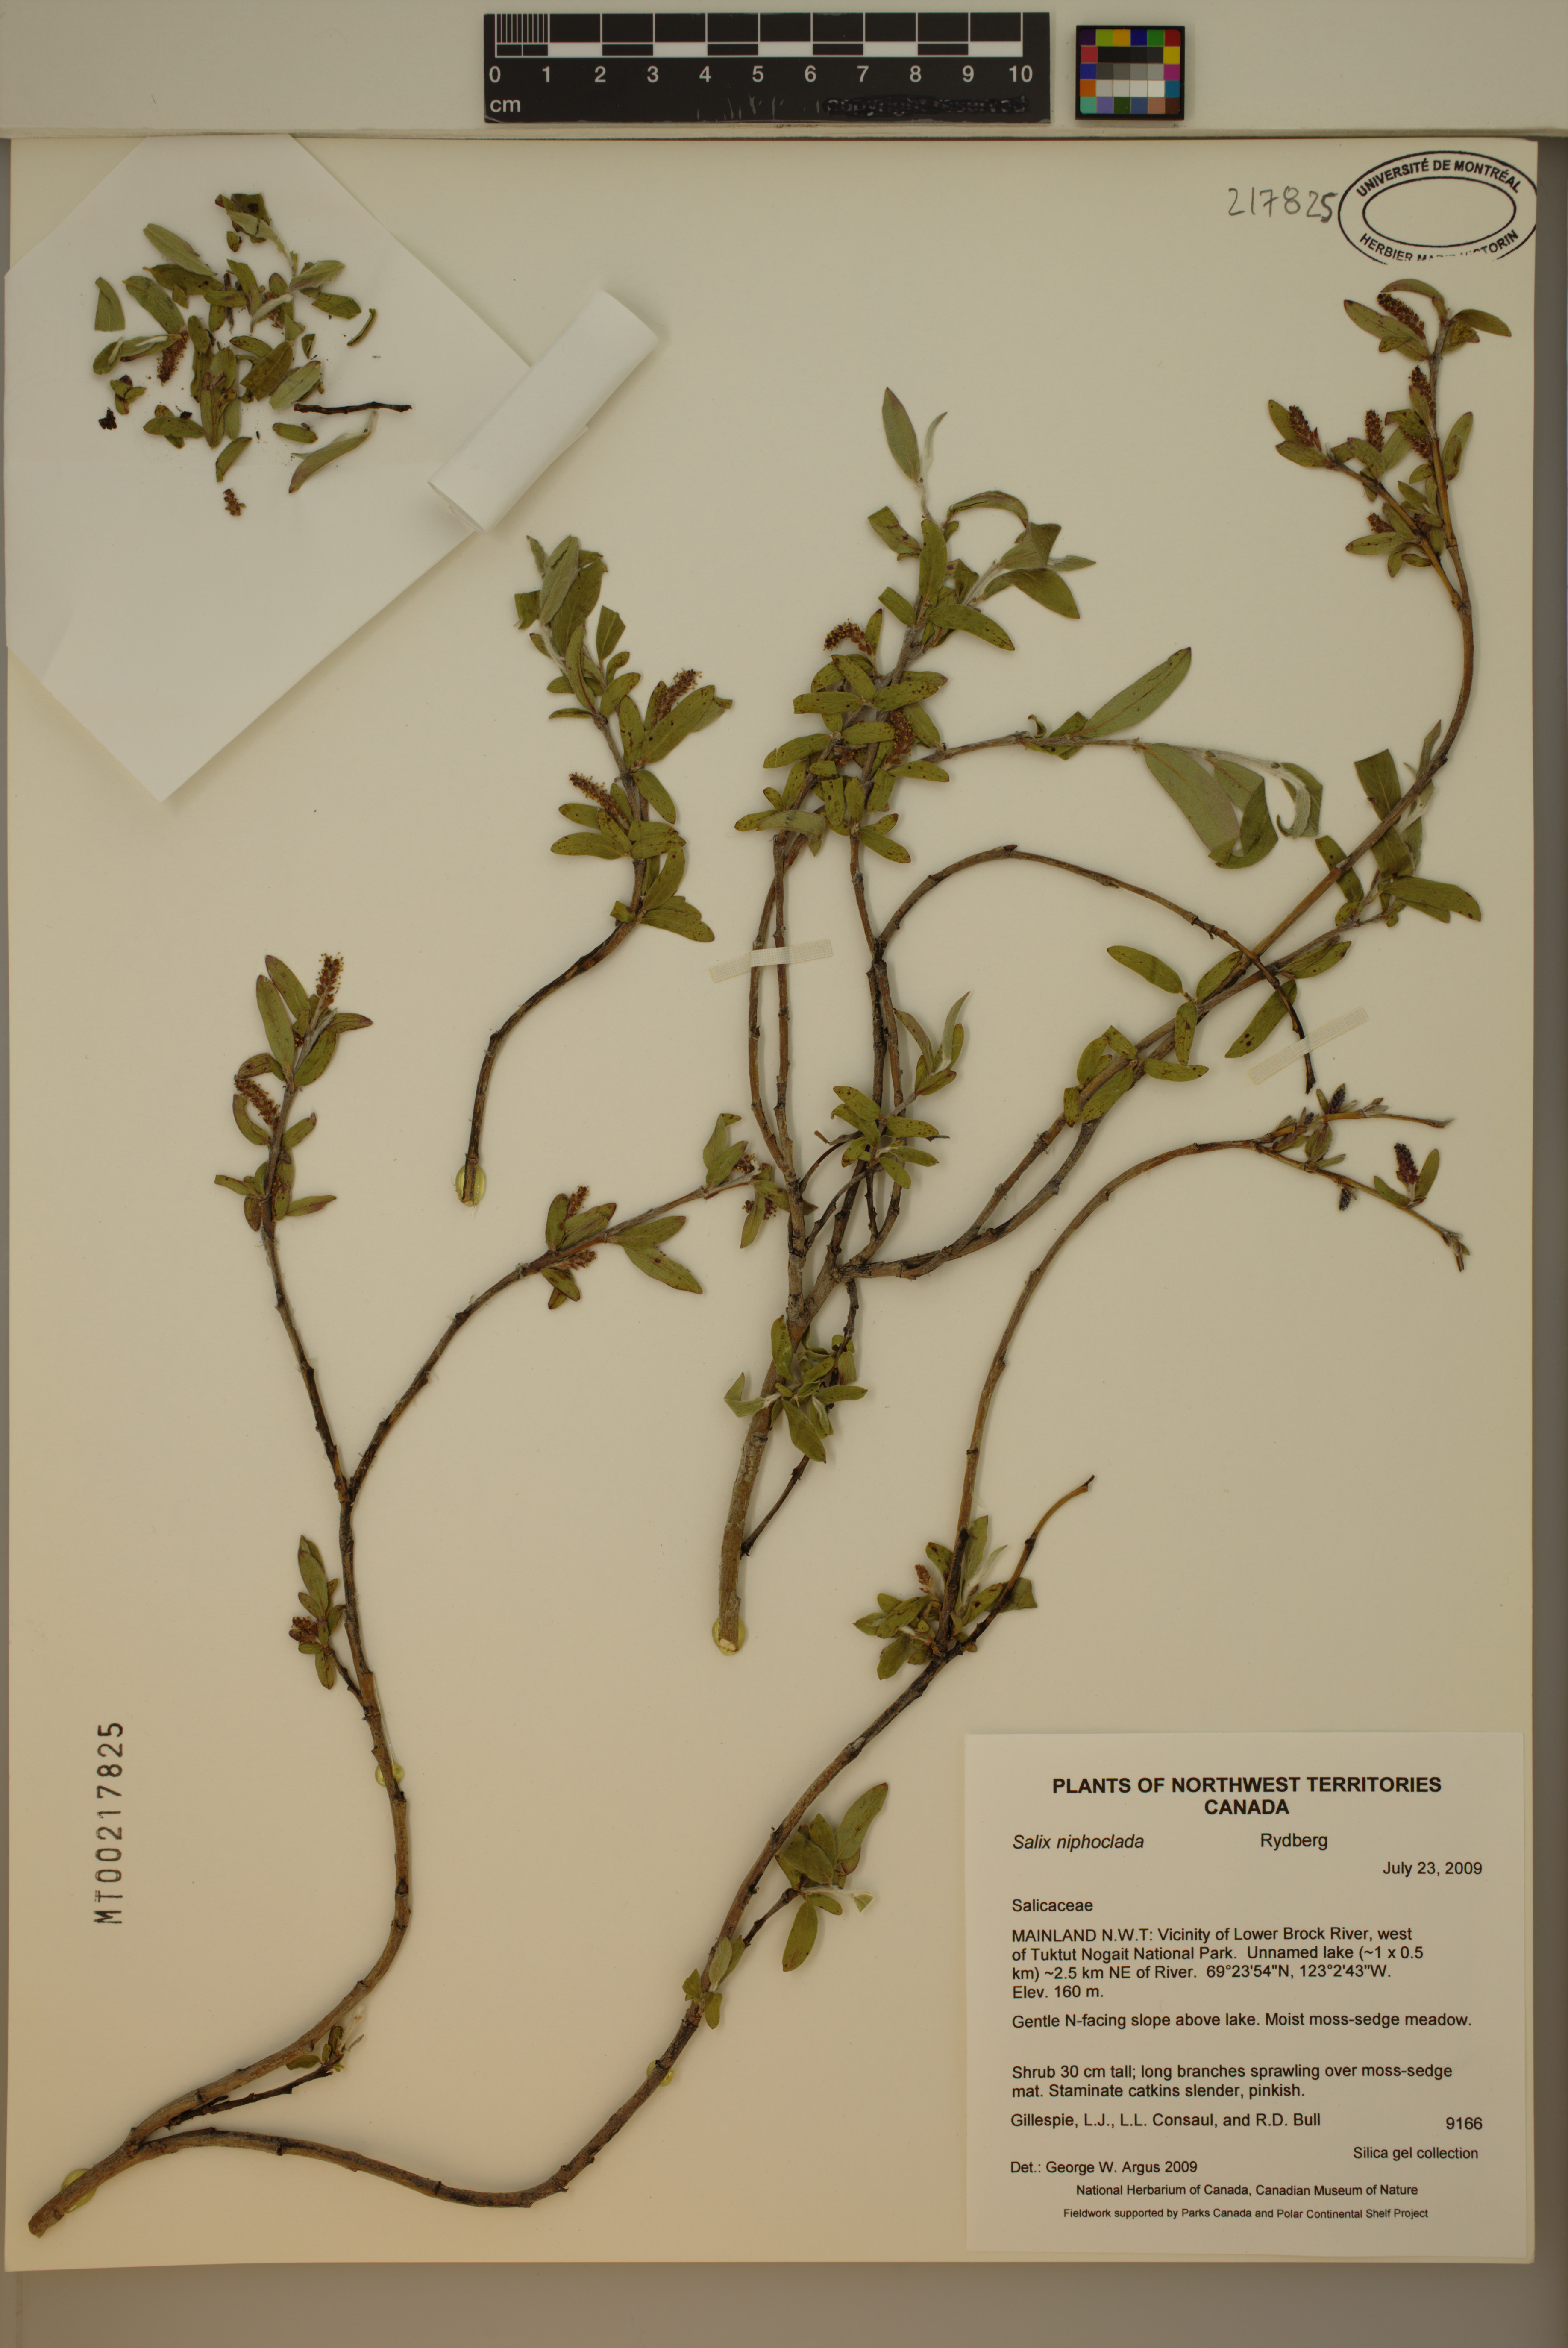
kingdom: Plantae
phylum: Tracheophyta
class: Magnoliopsida
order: Malpighiales
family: Salicaceae
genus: Salix
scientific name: Salix niphoclada
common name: Barren-ground willow
